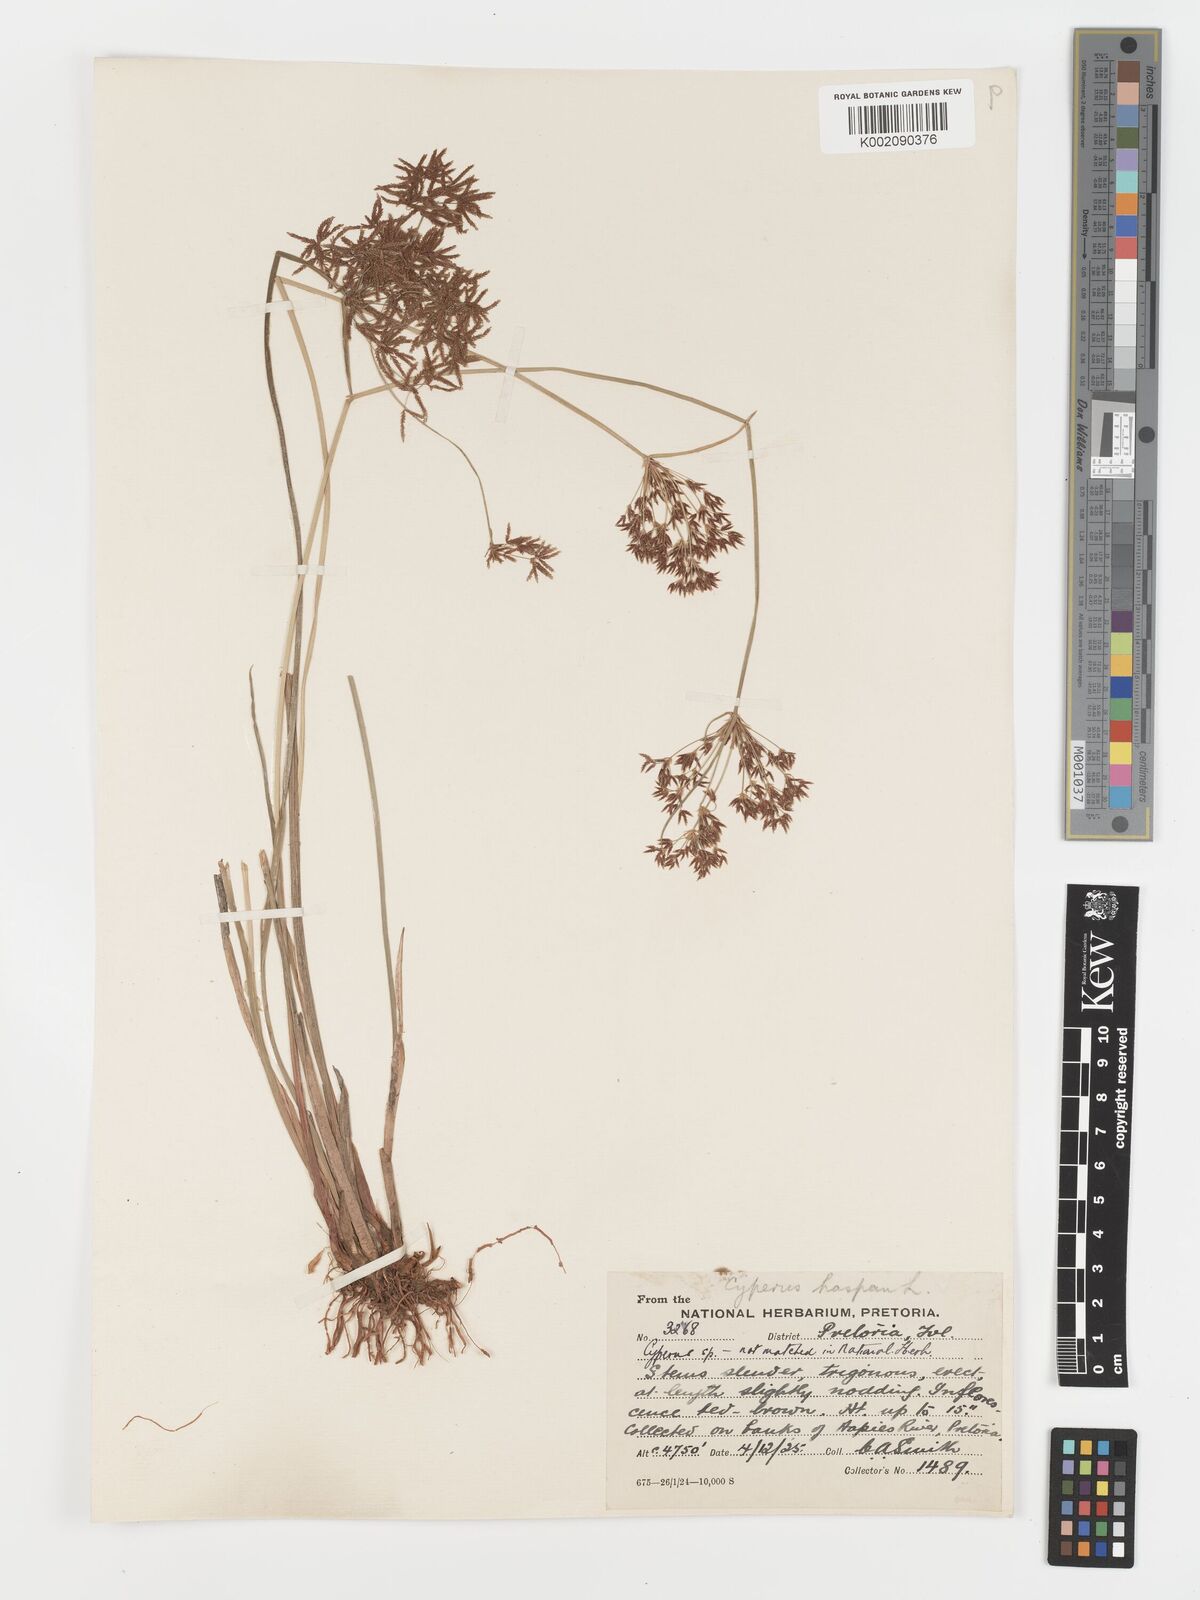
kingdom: Plantae
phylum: Tracheophyta
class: Liliopsida
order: Poales
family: Cyperaceae
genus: Cyperus
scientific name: Cyperus haspan
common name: Haspan flatsedge
